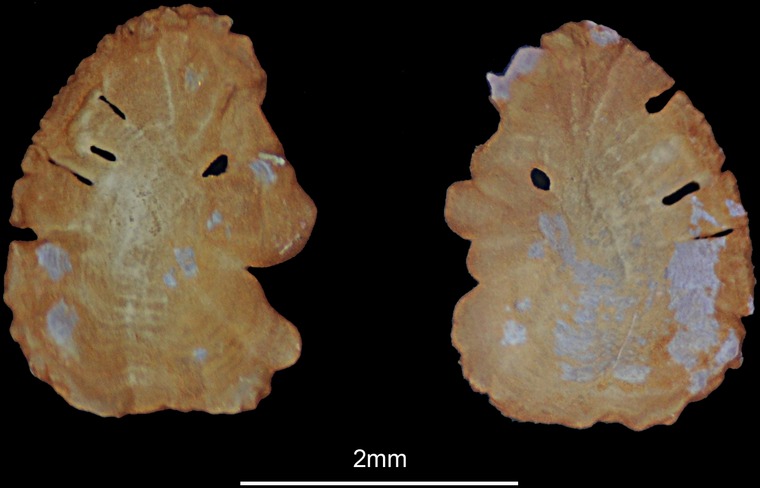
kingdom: Animalia
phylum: Chordata
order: Perciformes
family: Mullidae
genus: Parupeneus
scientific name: Parupeneus heptacanthus
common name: Cinnabar goatfish
